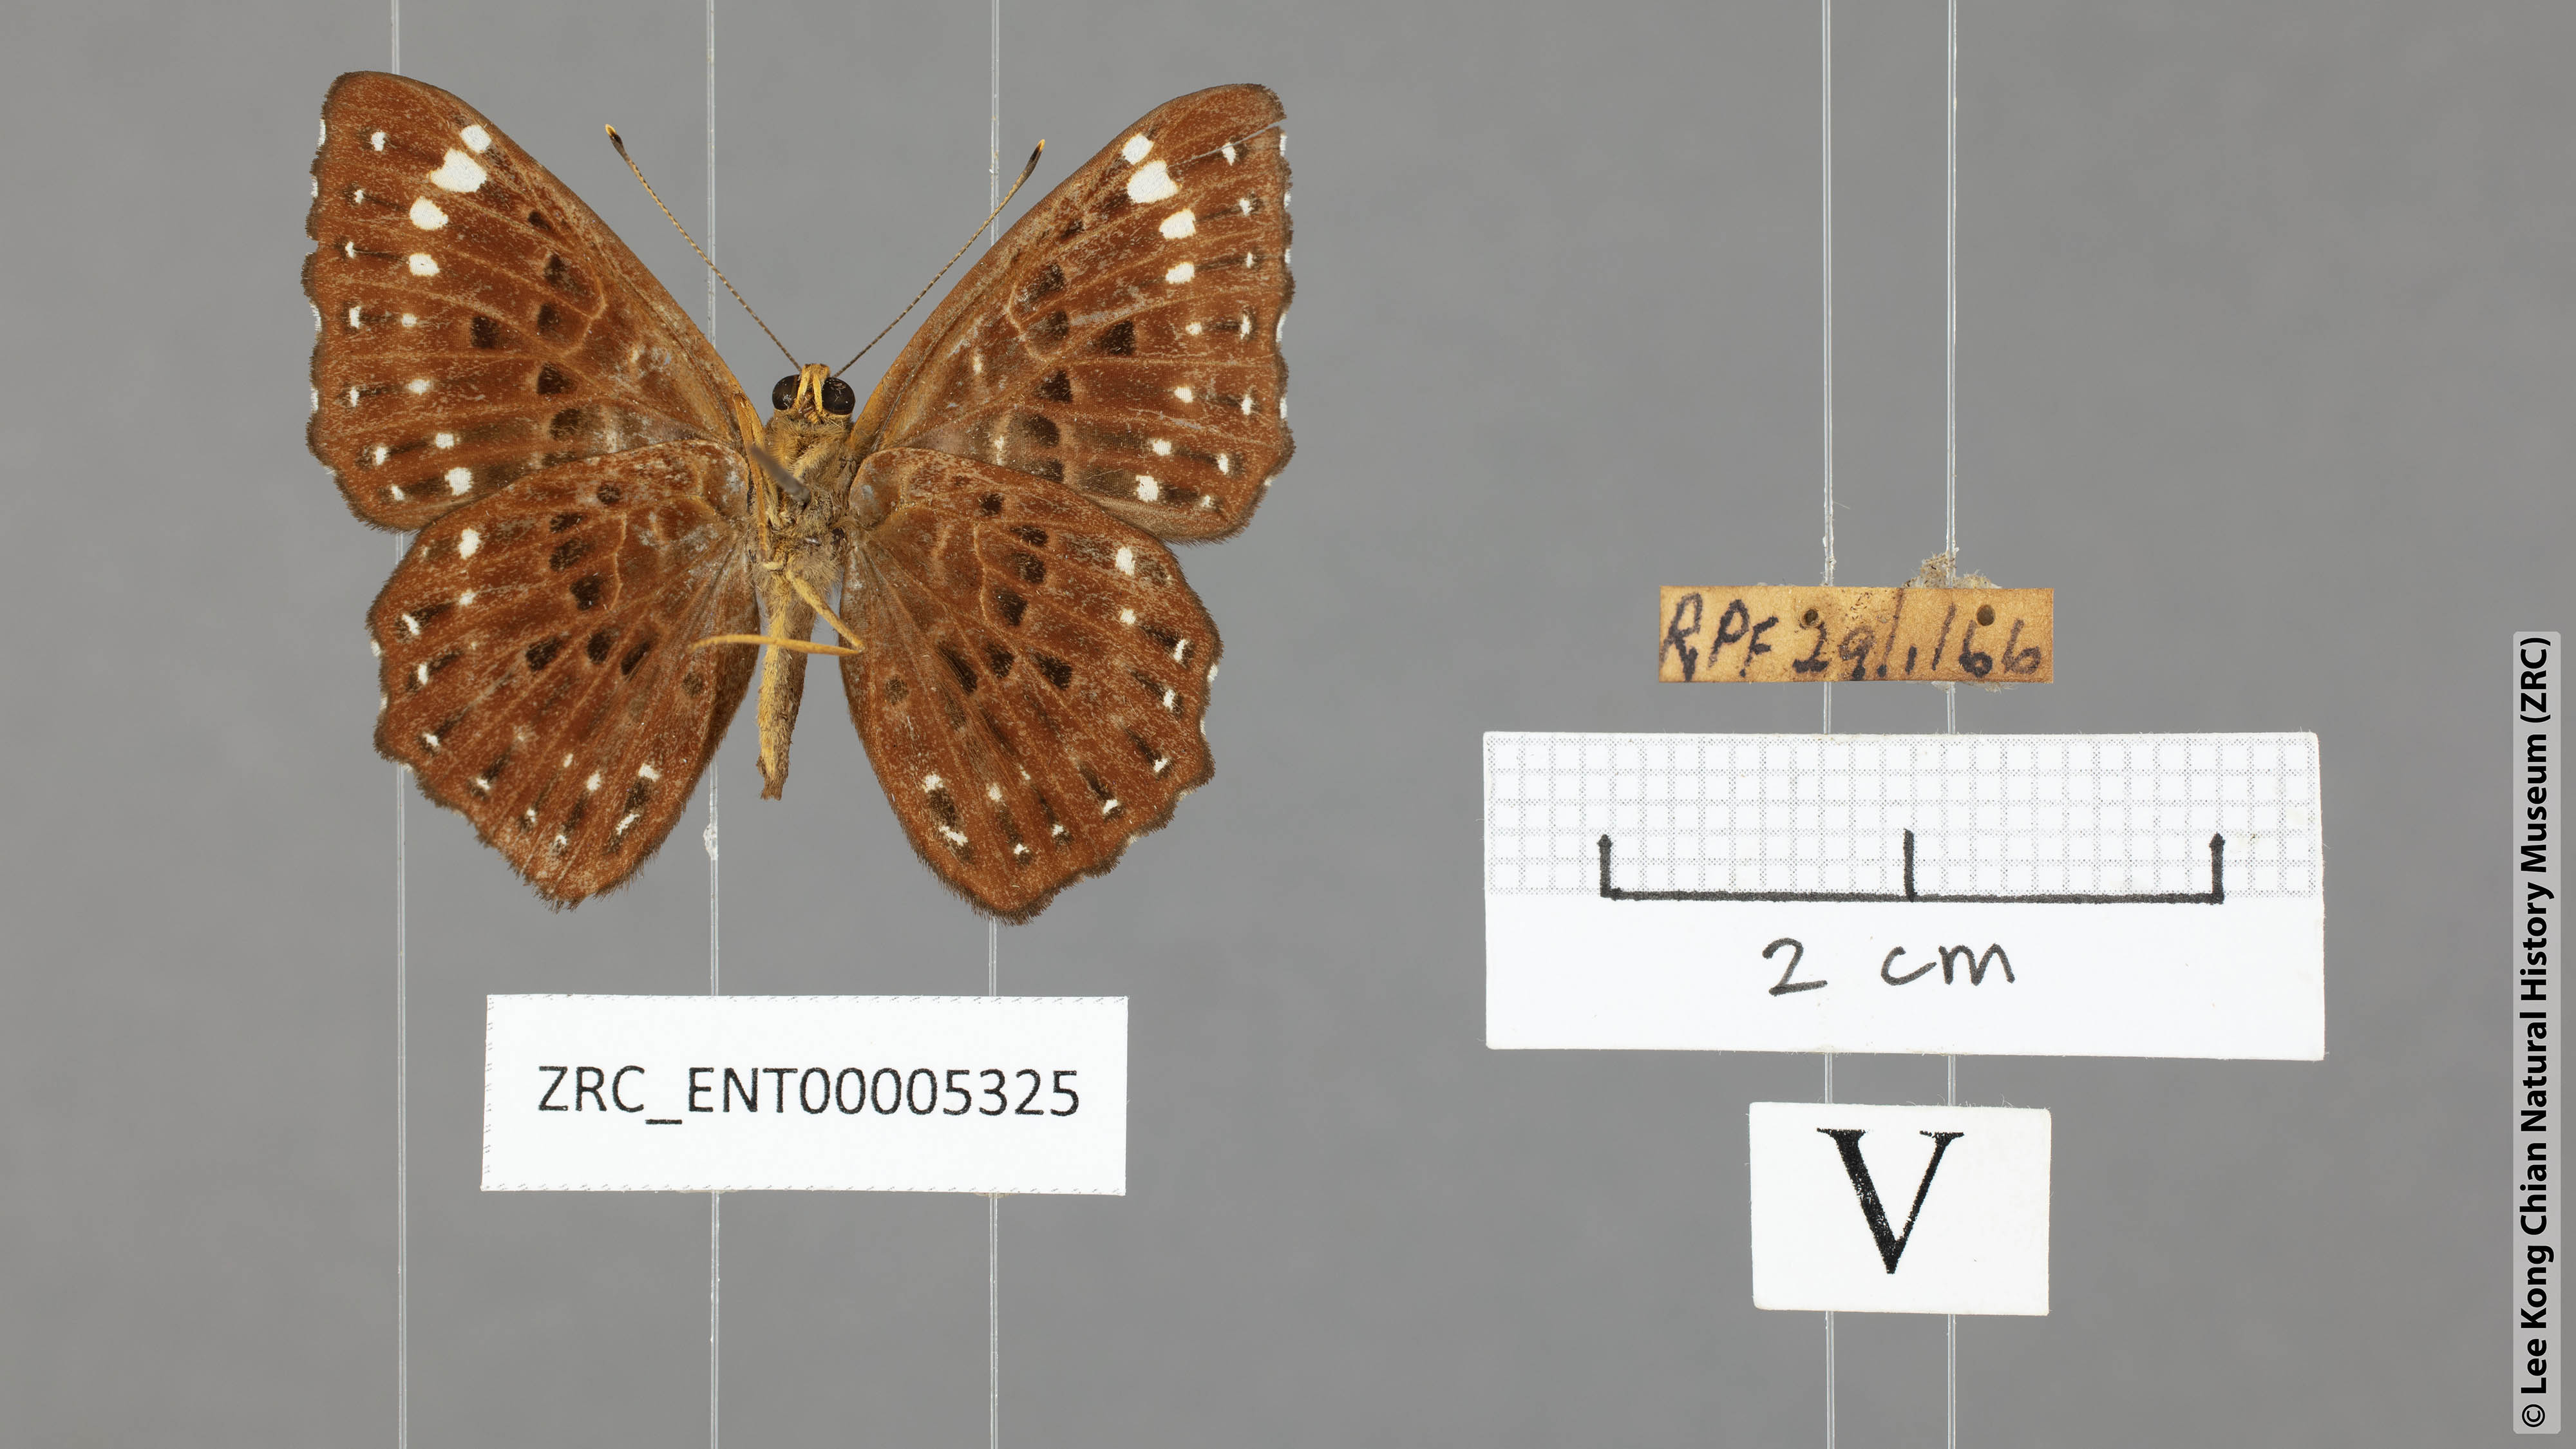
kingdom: Animalia
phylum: Arthropoda
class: Insecta
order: Lepidoptera
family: Riodinidae
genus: Zemeros
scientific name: Zemeros flegyas
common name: Punchinello
